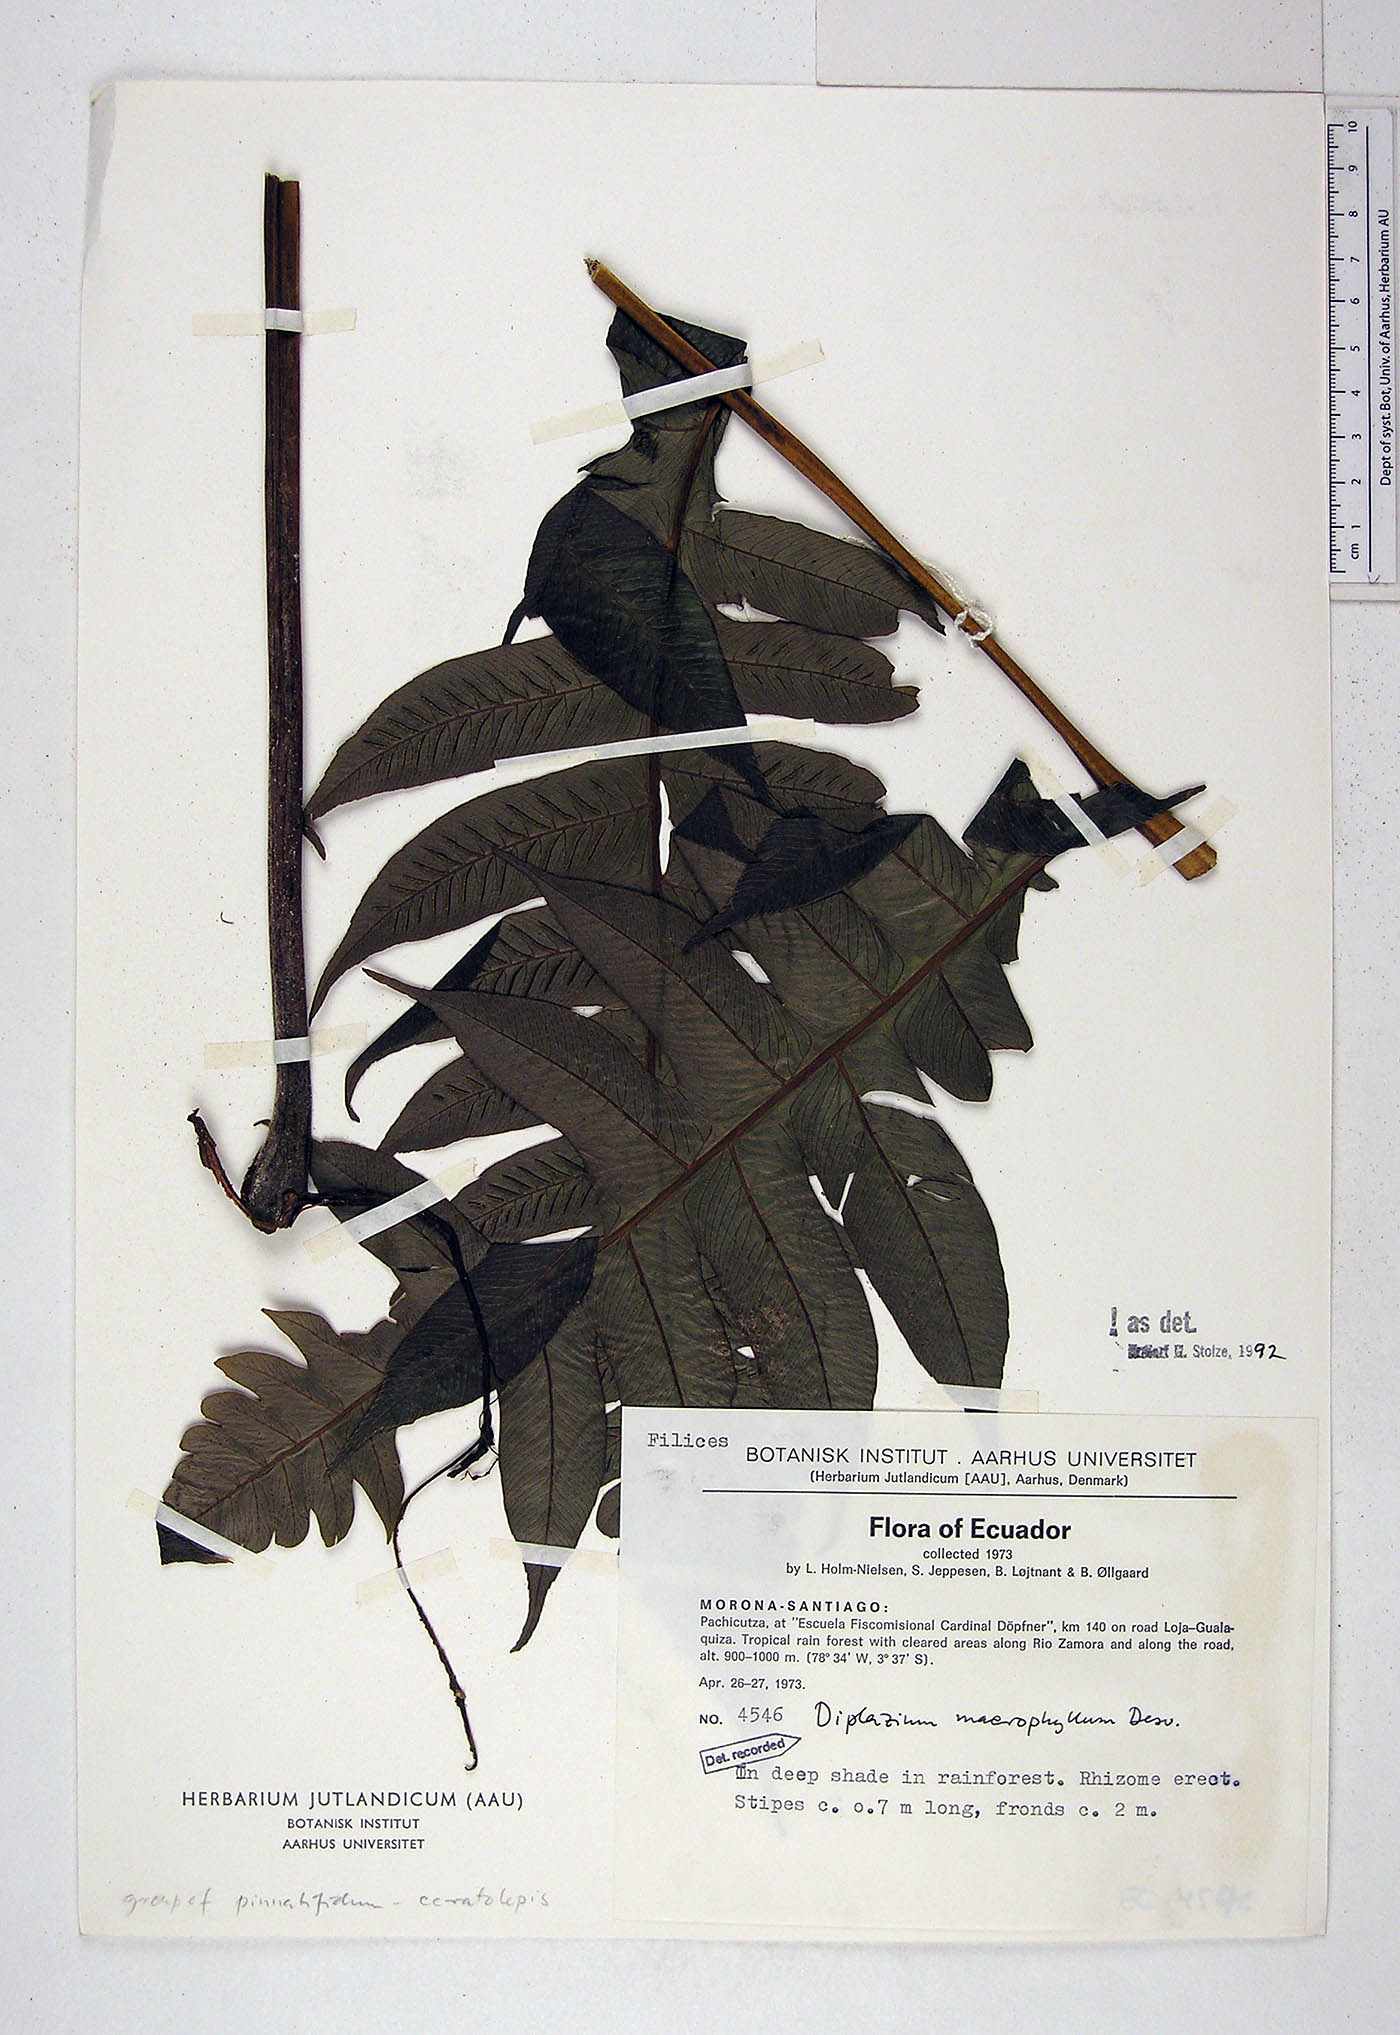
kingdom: Plantae
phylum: Tracheophyta
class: Polypodiopsida
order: Polypodiales
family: Athyriaceae
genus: Diplazium
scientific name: Diplazium macrophyllum
